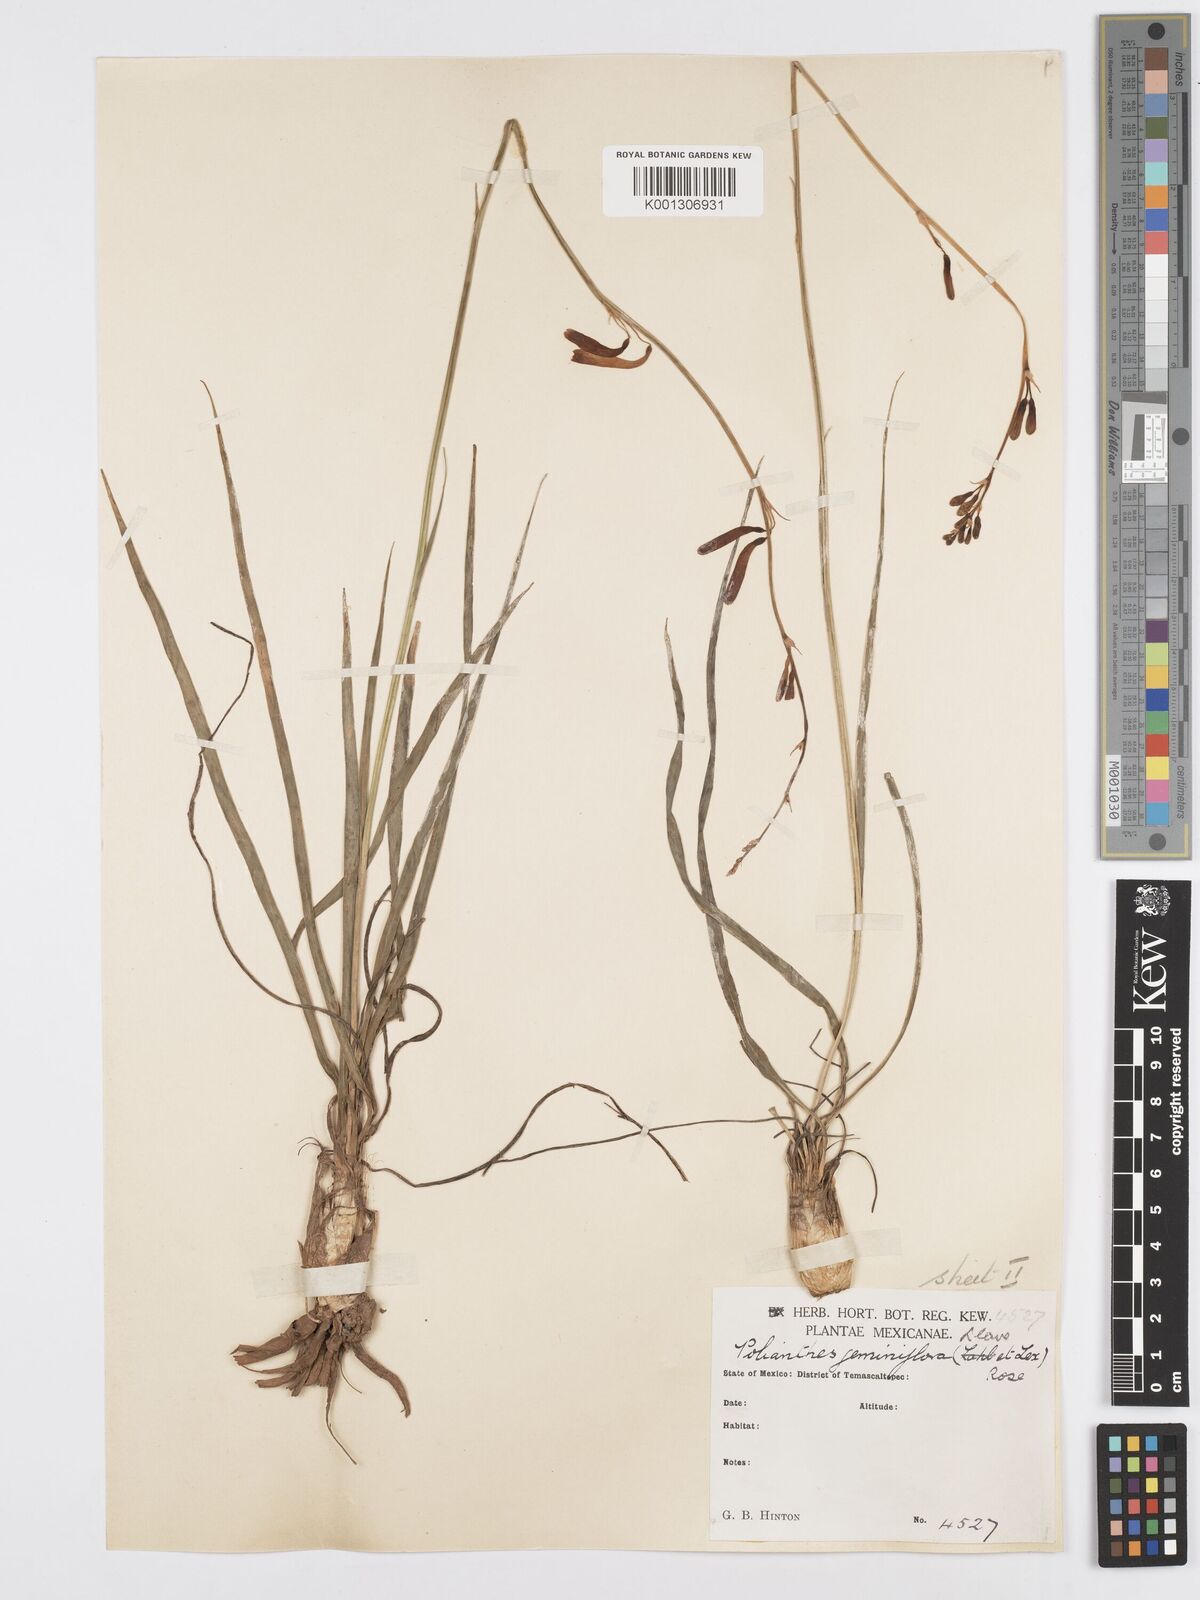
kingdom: Plantae
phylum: Tracheophyta
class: Liliopsida
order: Asparagales
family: Asparagaceae
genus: Agave
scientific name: Agave coetocapnia
